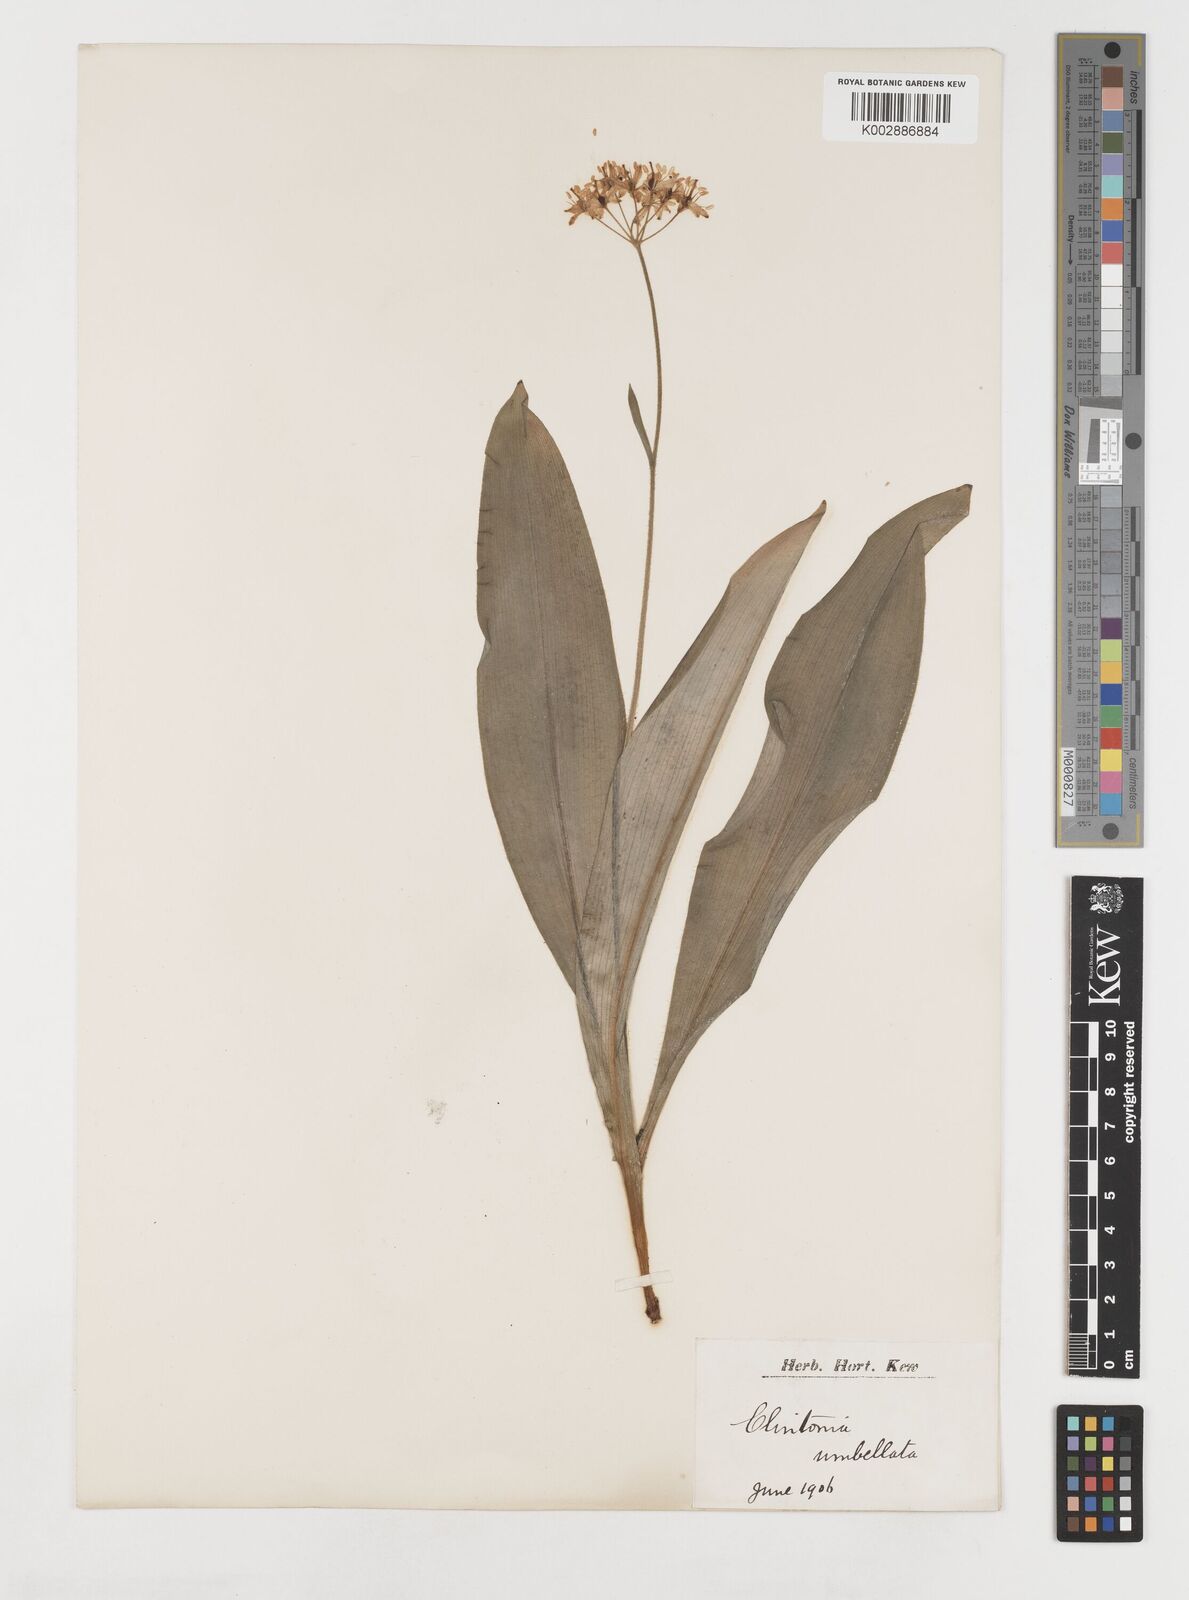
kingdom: Plantae
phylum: Tracheophyta
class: Liliopsida
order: Liliales
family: Liliaceae
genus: Clintonia
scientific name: Clintonia umbellulata
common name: Speckle wood-lily
